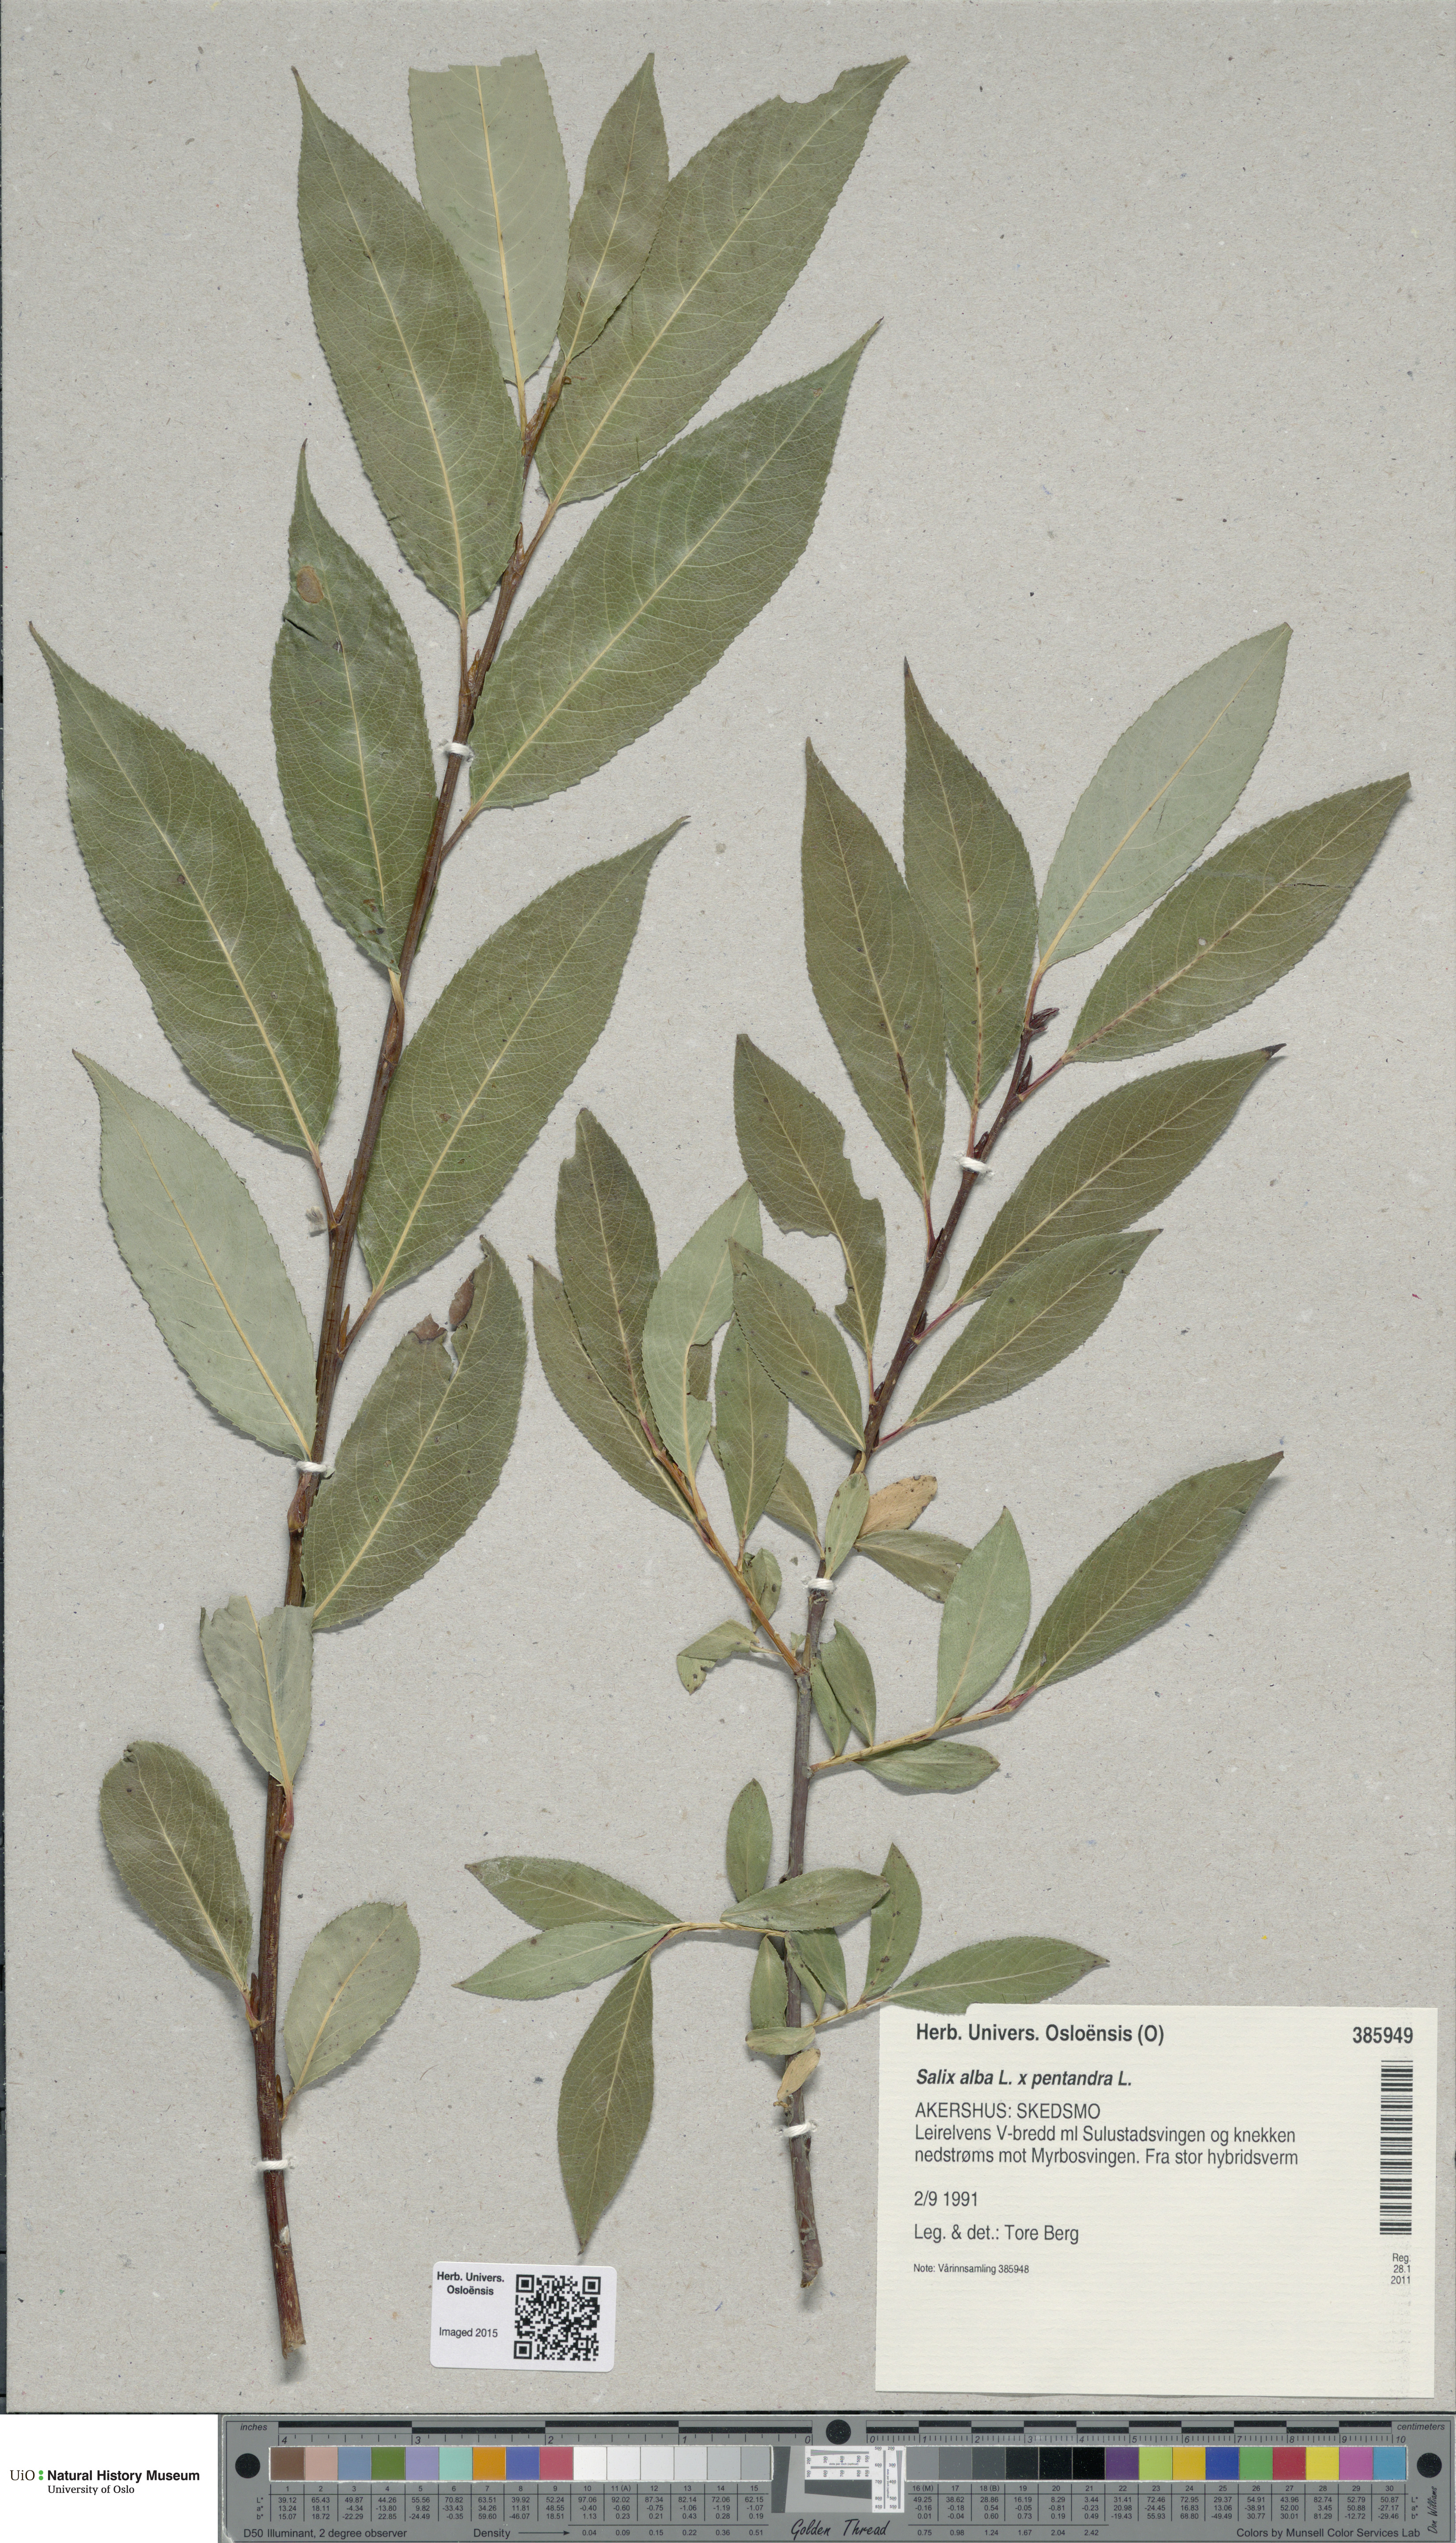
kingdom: Plantae
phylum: Tracheophyta
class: Magnoliopsida
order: Malpighiales
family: Salicaceae
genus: Salix
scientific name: Salix
